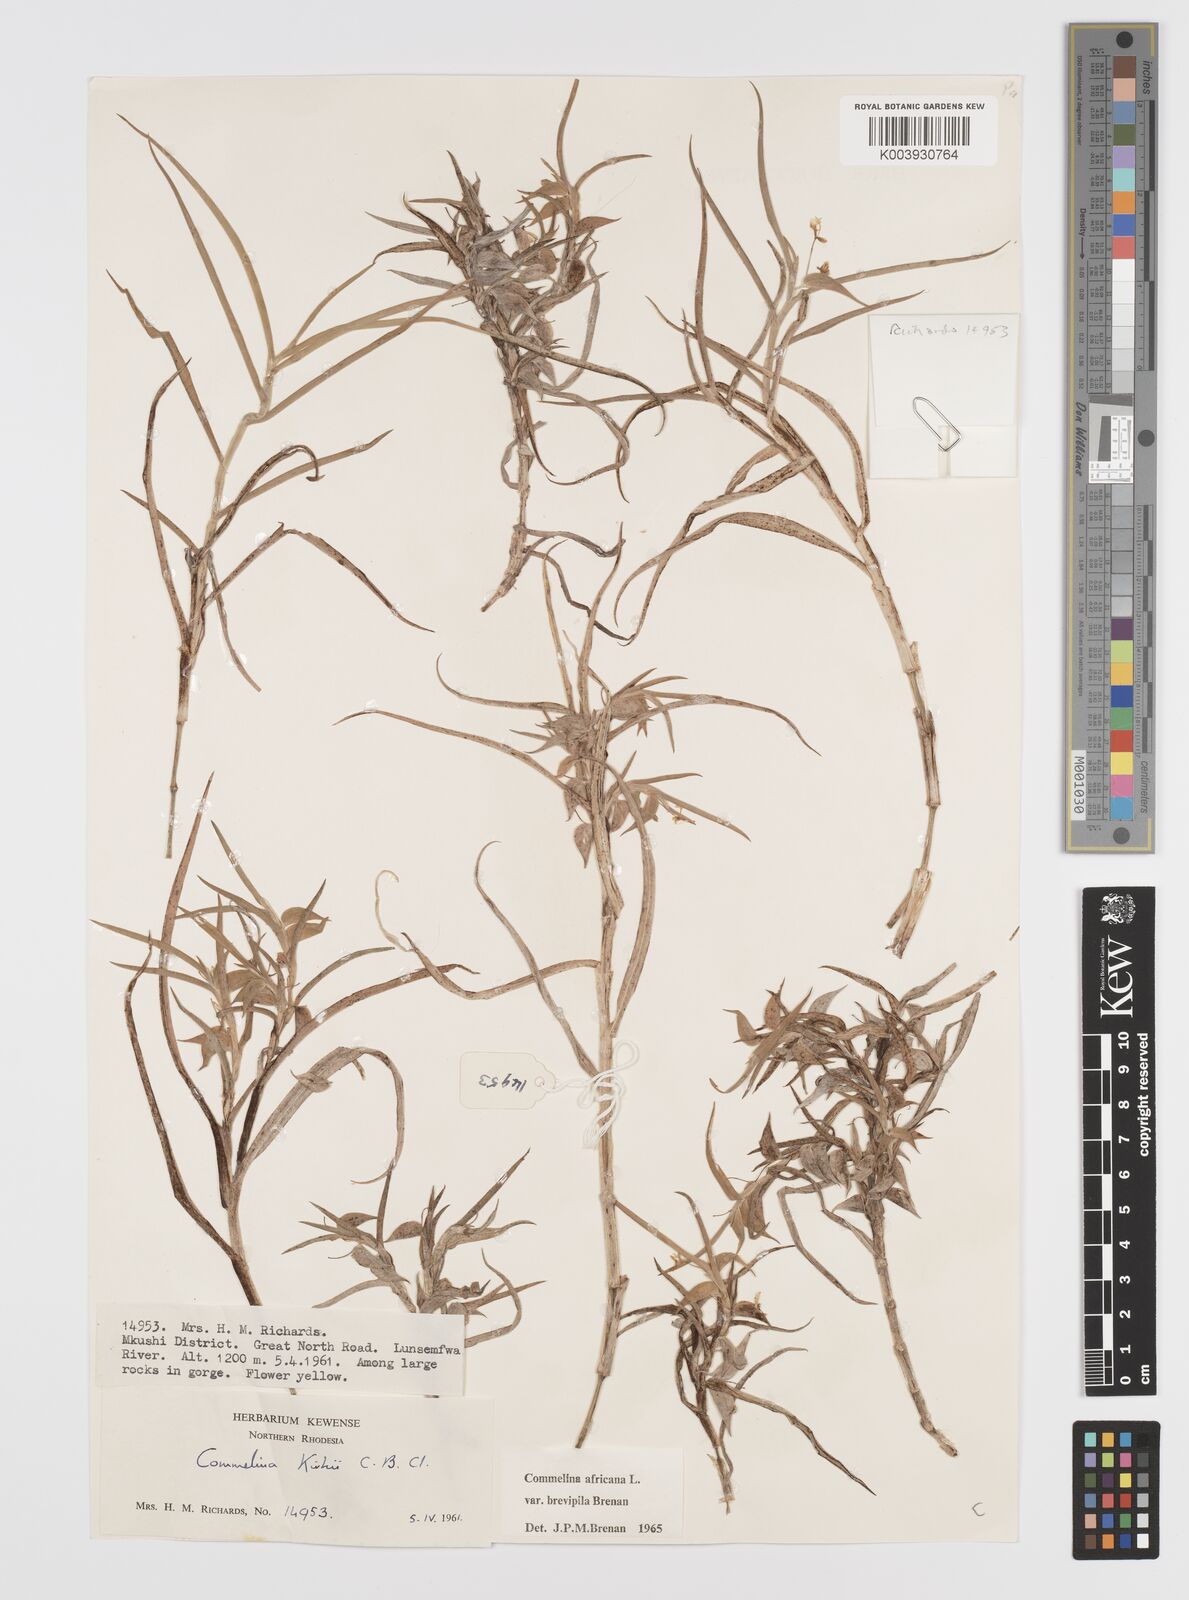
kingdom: Plantae
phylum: Tracheophyta
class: Liliopsida
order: Commelinales
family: Commelinaceae
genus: Commelina
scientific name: Commelina africana
